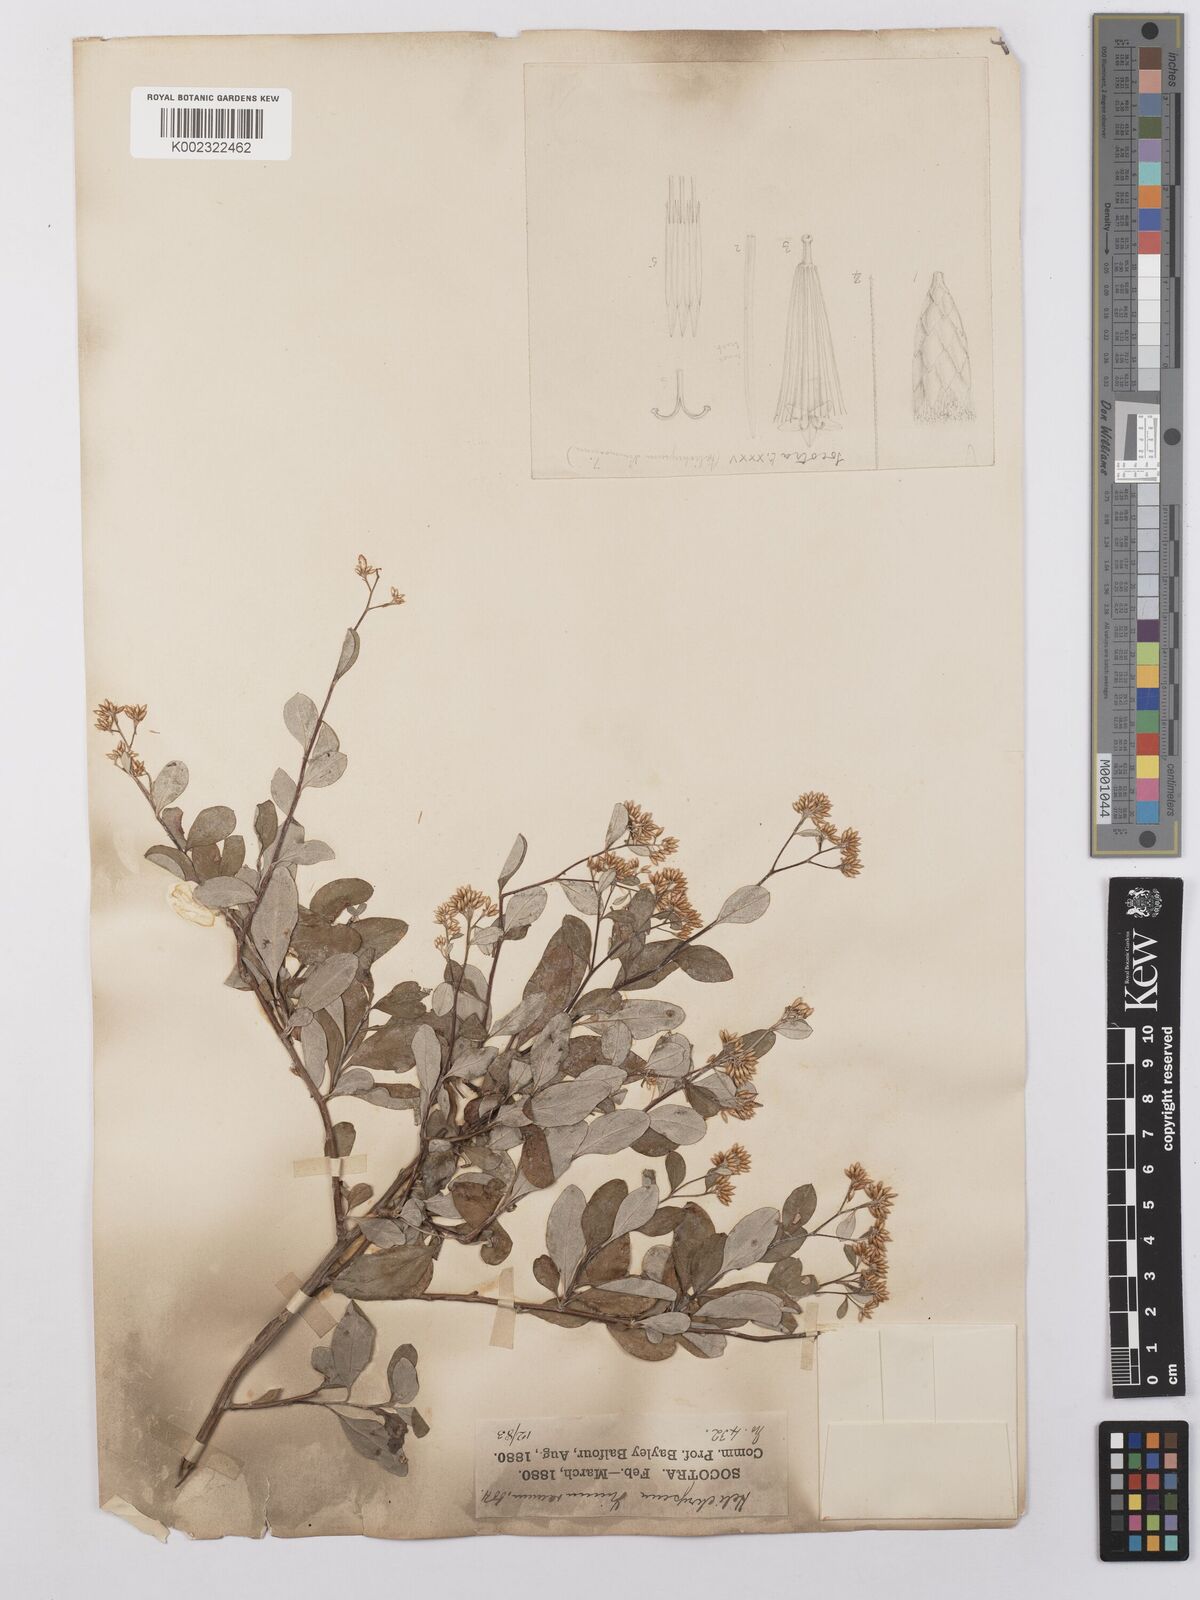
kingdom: Plantae
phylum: Tracheophyta
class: Magnoliopsida
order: Asterales
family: Asteraceae
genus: Libinhania
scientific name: Libinhania nimmoana
